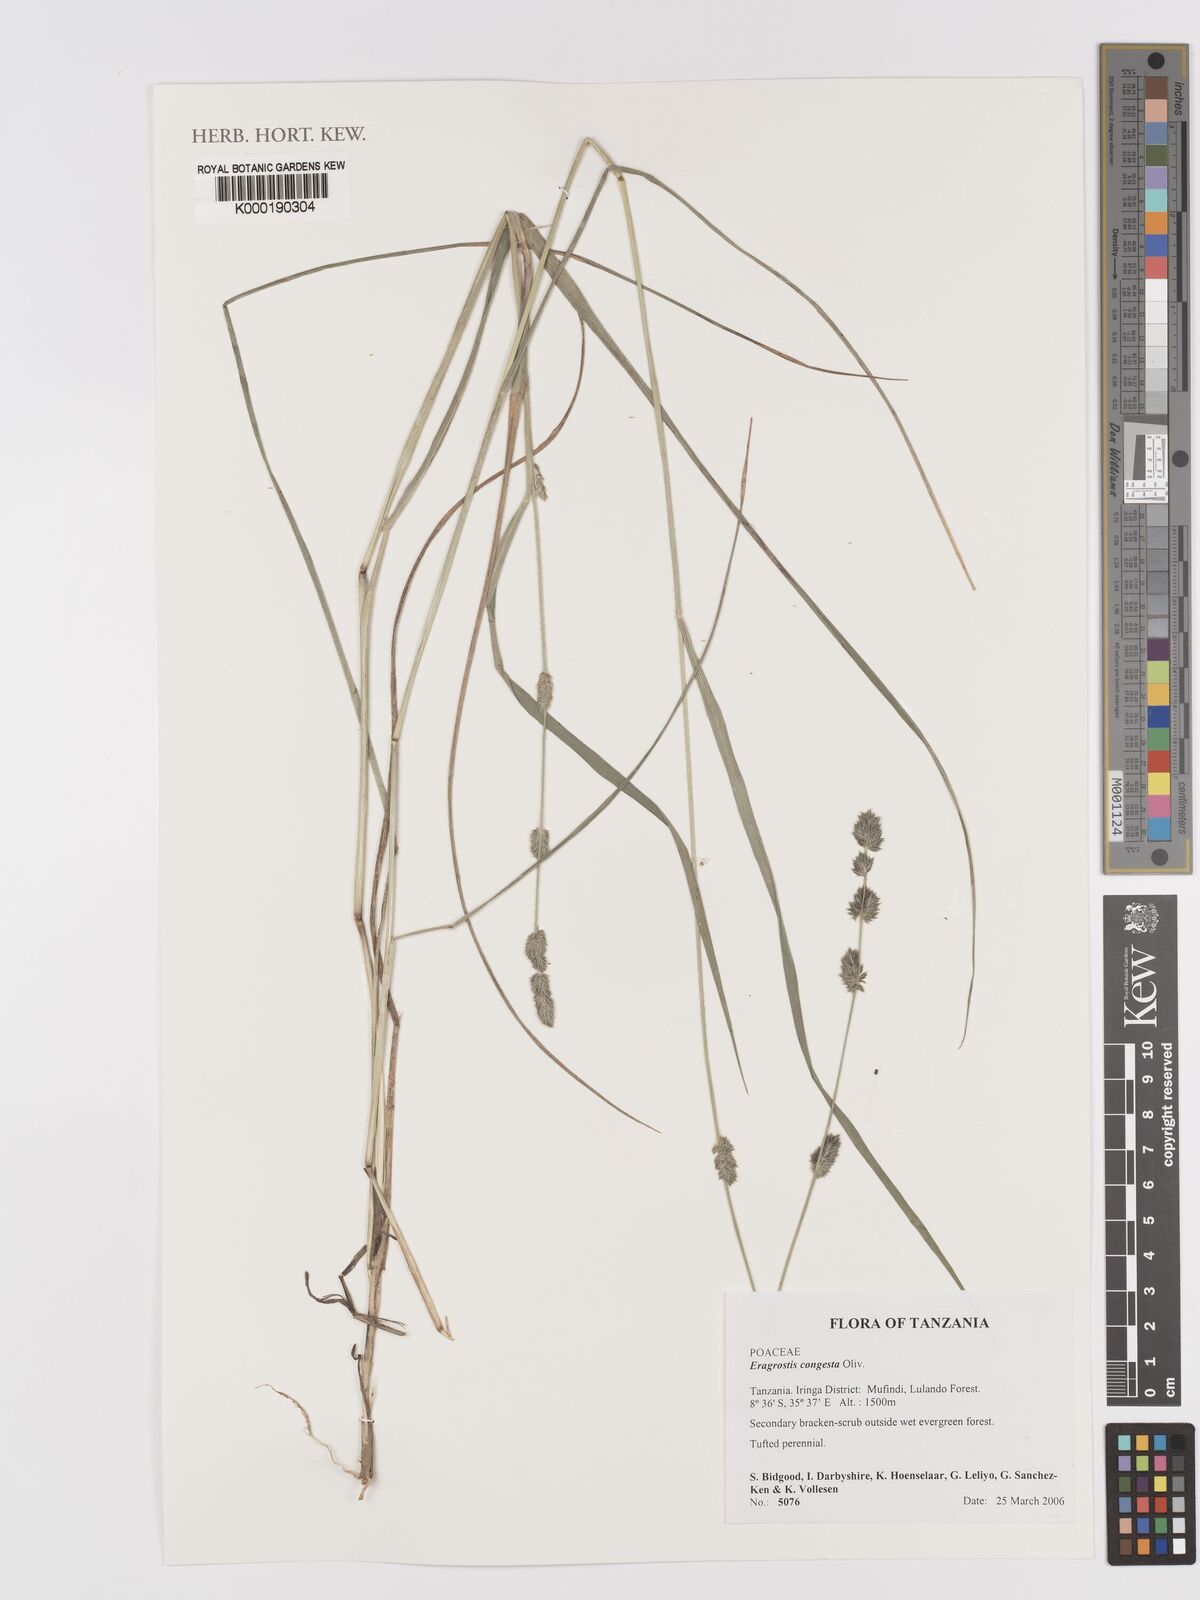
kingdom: Plantae
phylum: Tracheophyta
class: Liliopsida
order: Poales
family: Poaceae
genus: Eragrostis
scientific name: Eragrostis congesta
